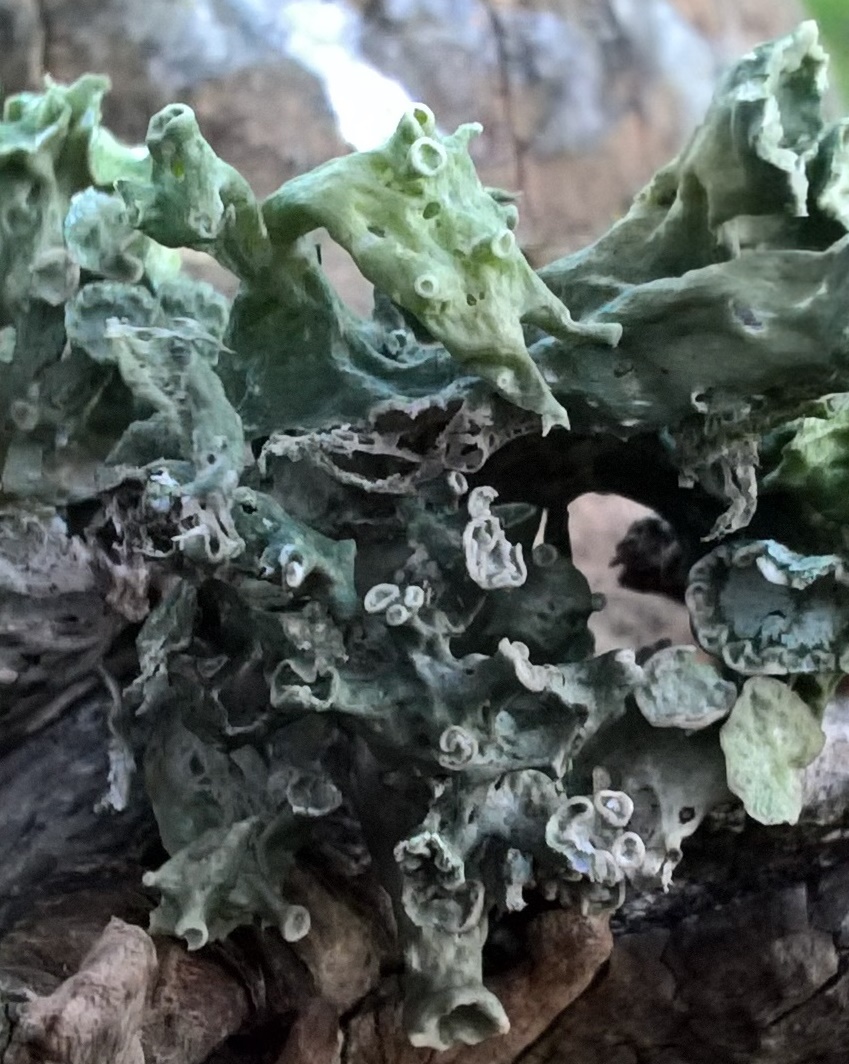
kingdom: Fungi
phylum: Ascomycota
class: Lecanoromycetes
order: Lecanorales
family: Ramalinaceae
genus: Ramalina
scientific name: Ramalina fastigiata
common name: tue-grenlav
